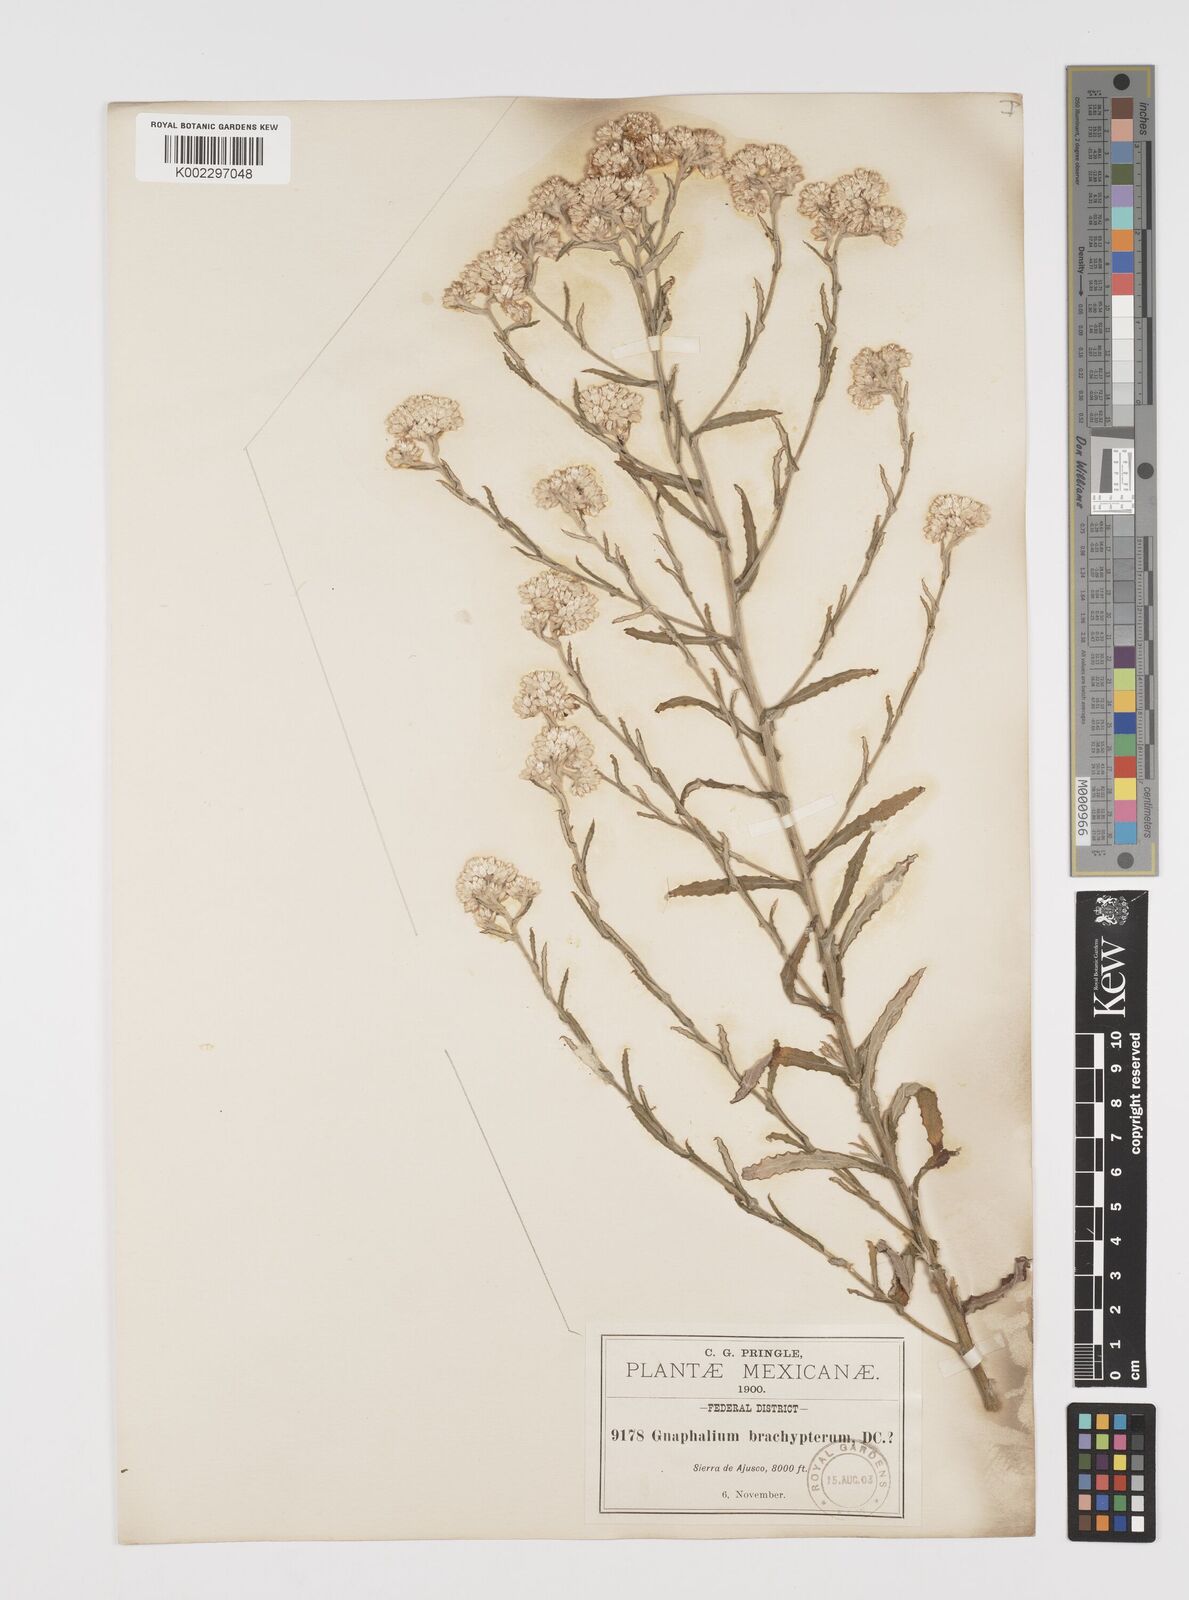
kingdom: Plantae
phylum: Tracheophyta
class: Magnoliopsida
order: Asterales
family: Asteraceae
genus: Pseudognaphalium
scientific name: Pseudognaphalium brachypterum
